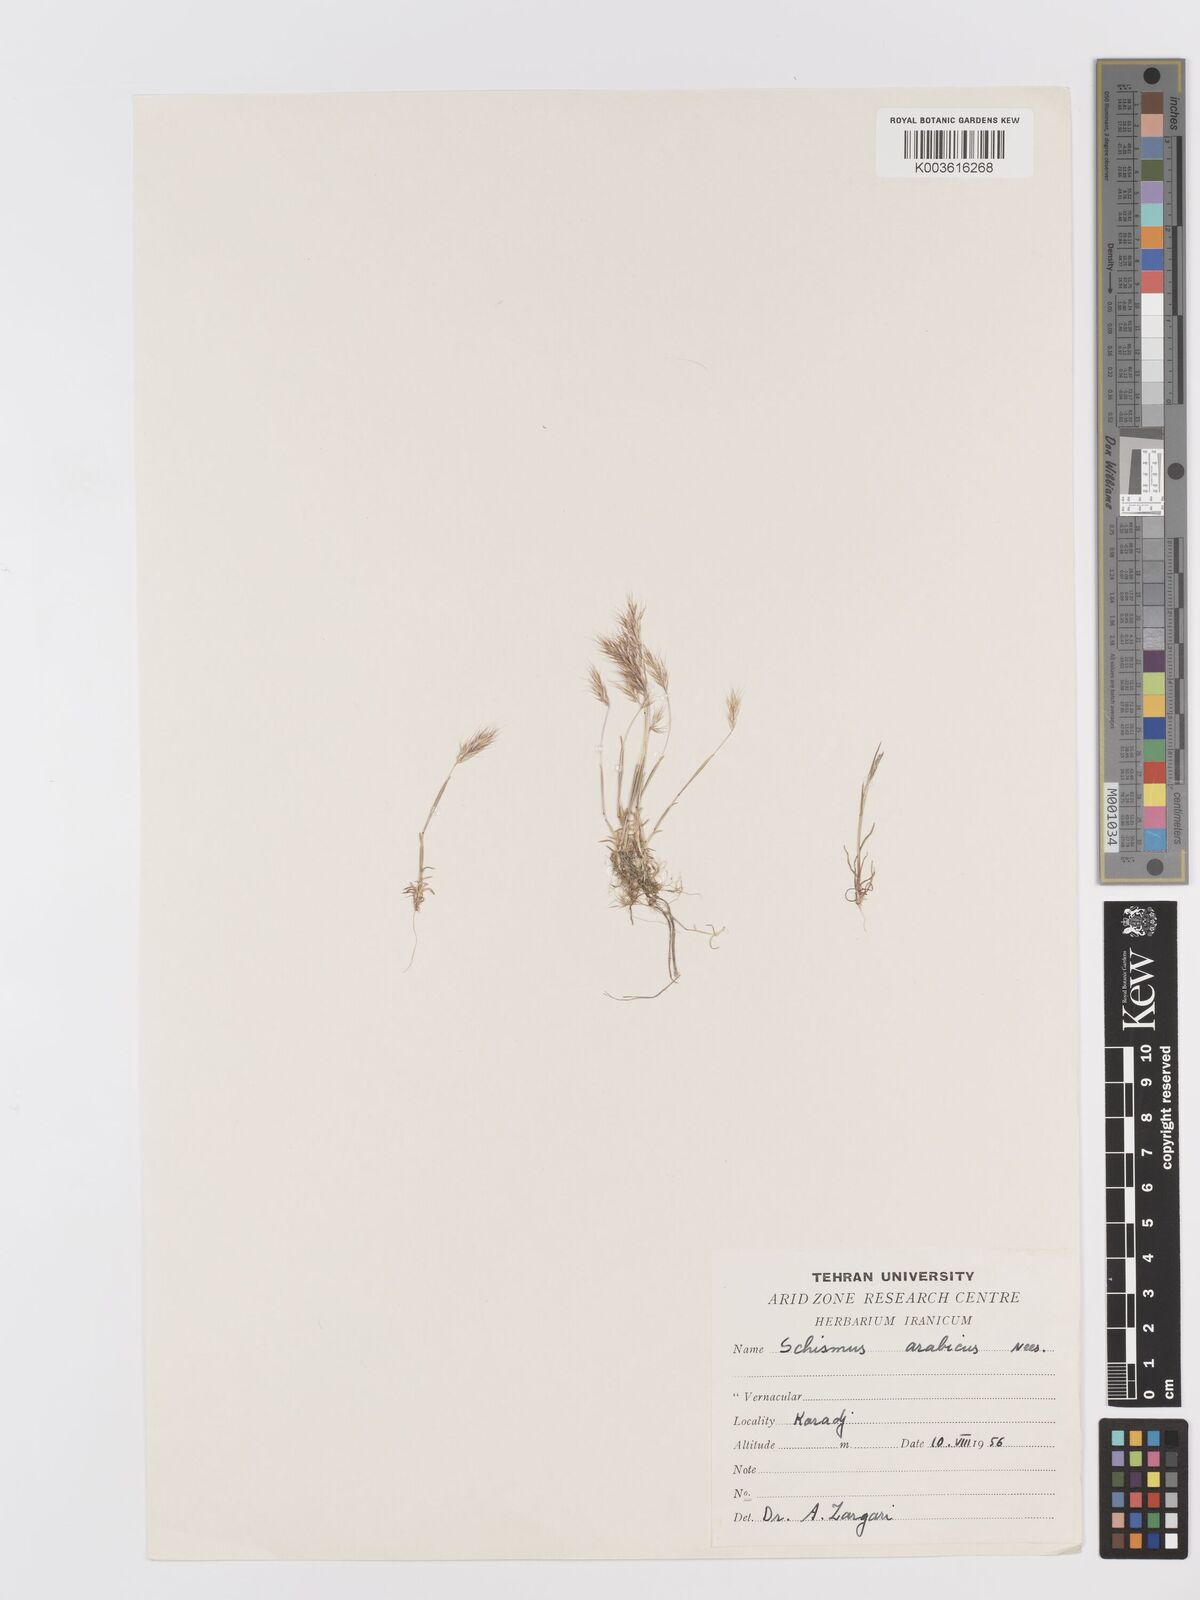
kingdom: Plantae
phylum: Tracheophyta
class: Liliopsida
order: Poales
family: Poaceae
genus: Trisetaria
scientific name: Trisetaria
